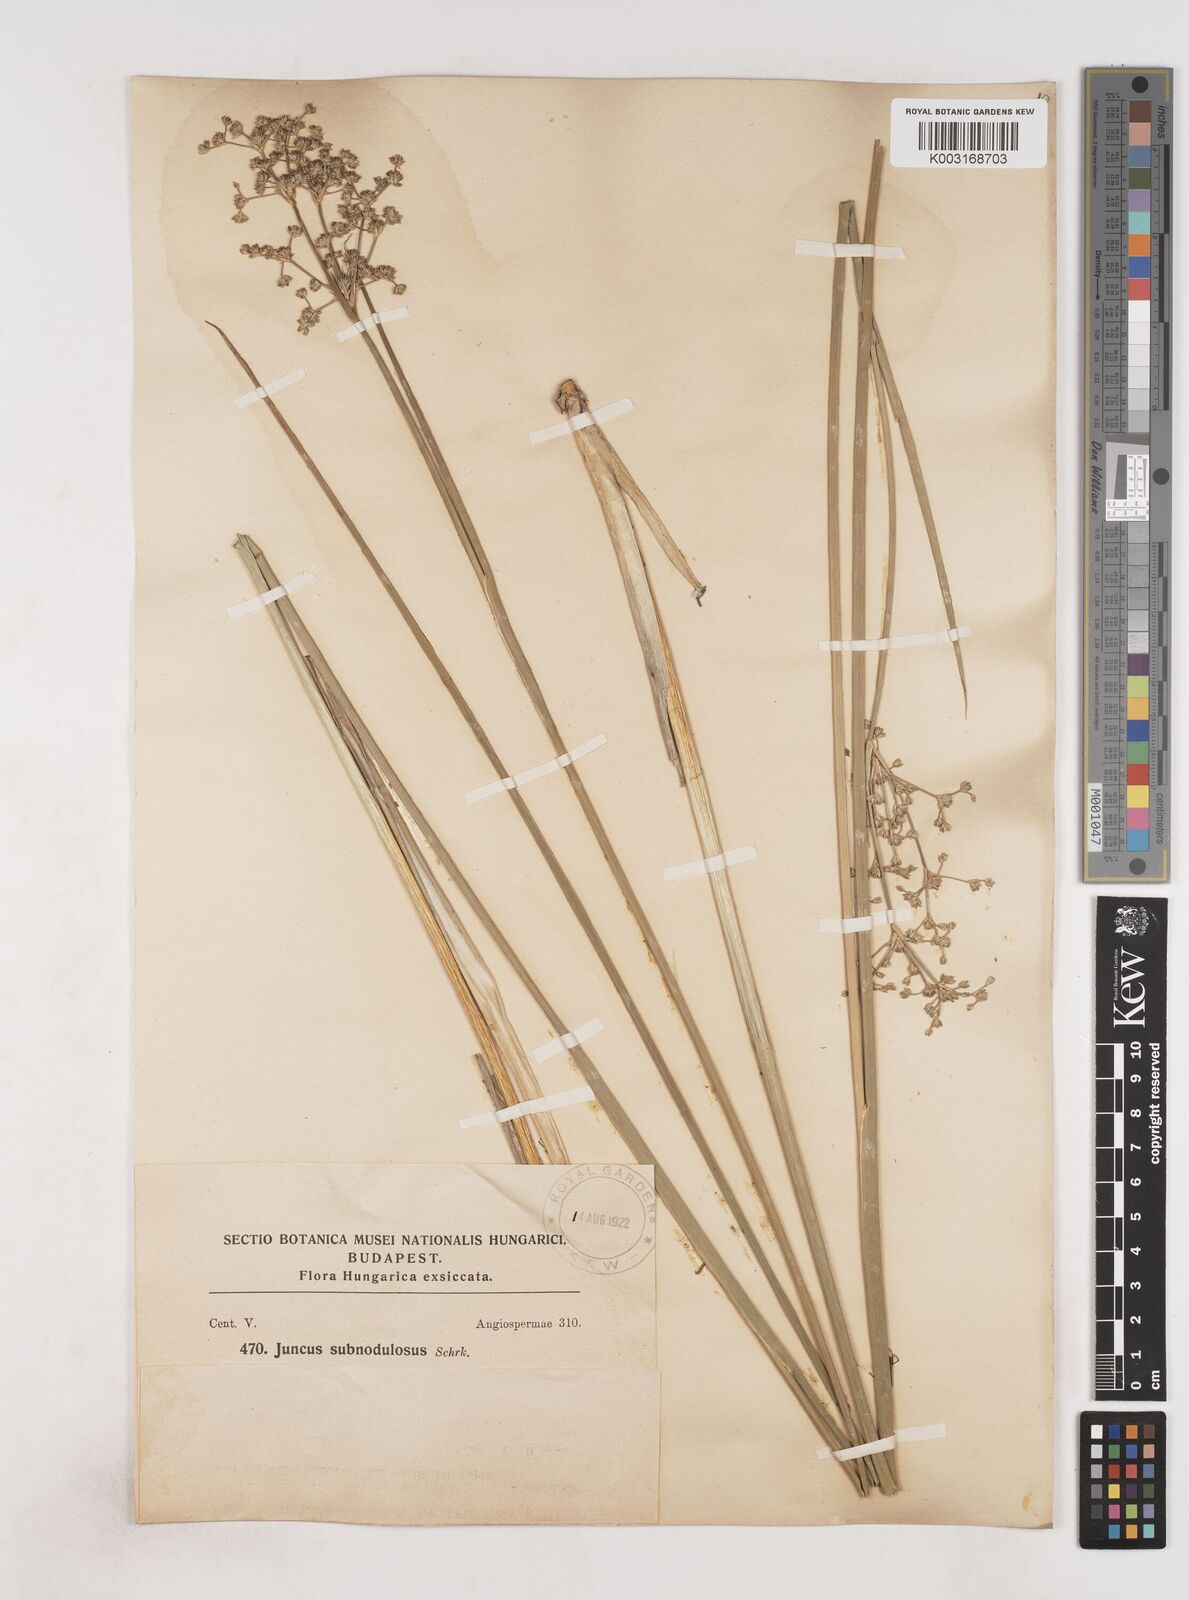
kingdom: Plantae
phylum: Tracheophyta
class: Liliopsida
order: Poales
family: Juncaceae
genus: Juncus
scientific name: Juncus subnodulosus
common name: Blunt-flowered rush
